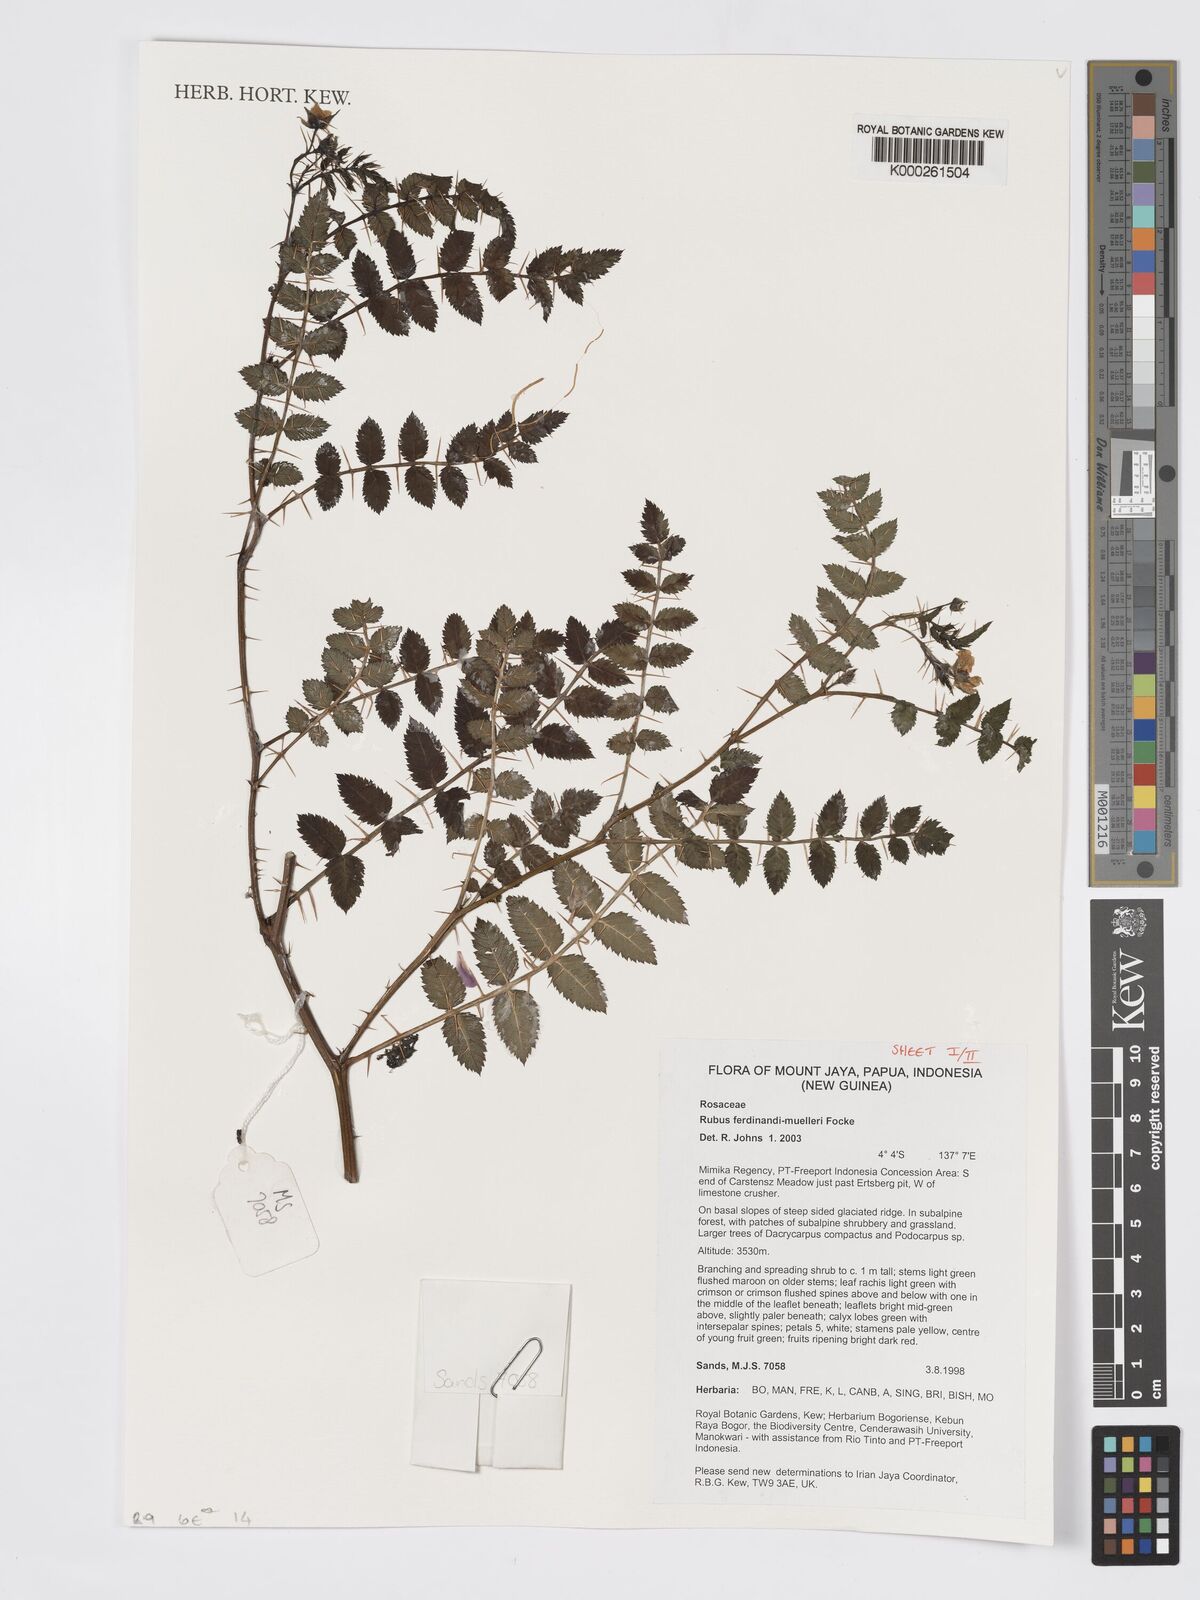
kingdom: Plantae
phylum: Tracheophyta
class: Magnoliopsida
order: Rosales
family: Rosaceae
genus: Rubus
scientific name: Rubus ferdinandimuelleri
